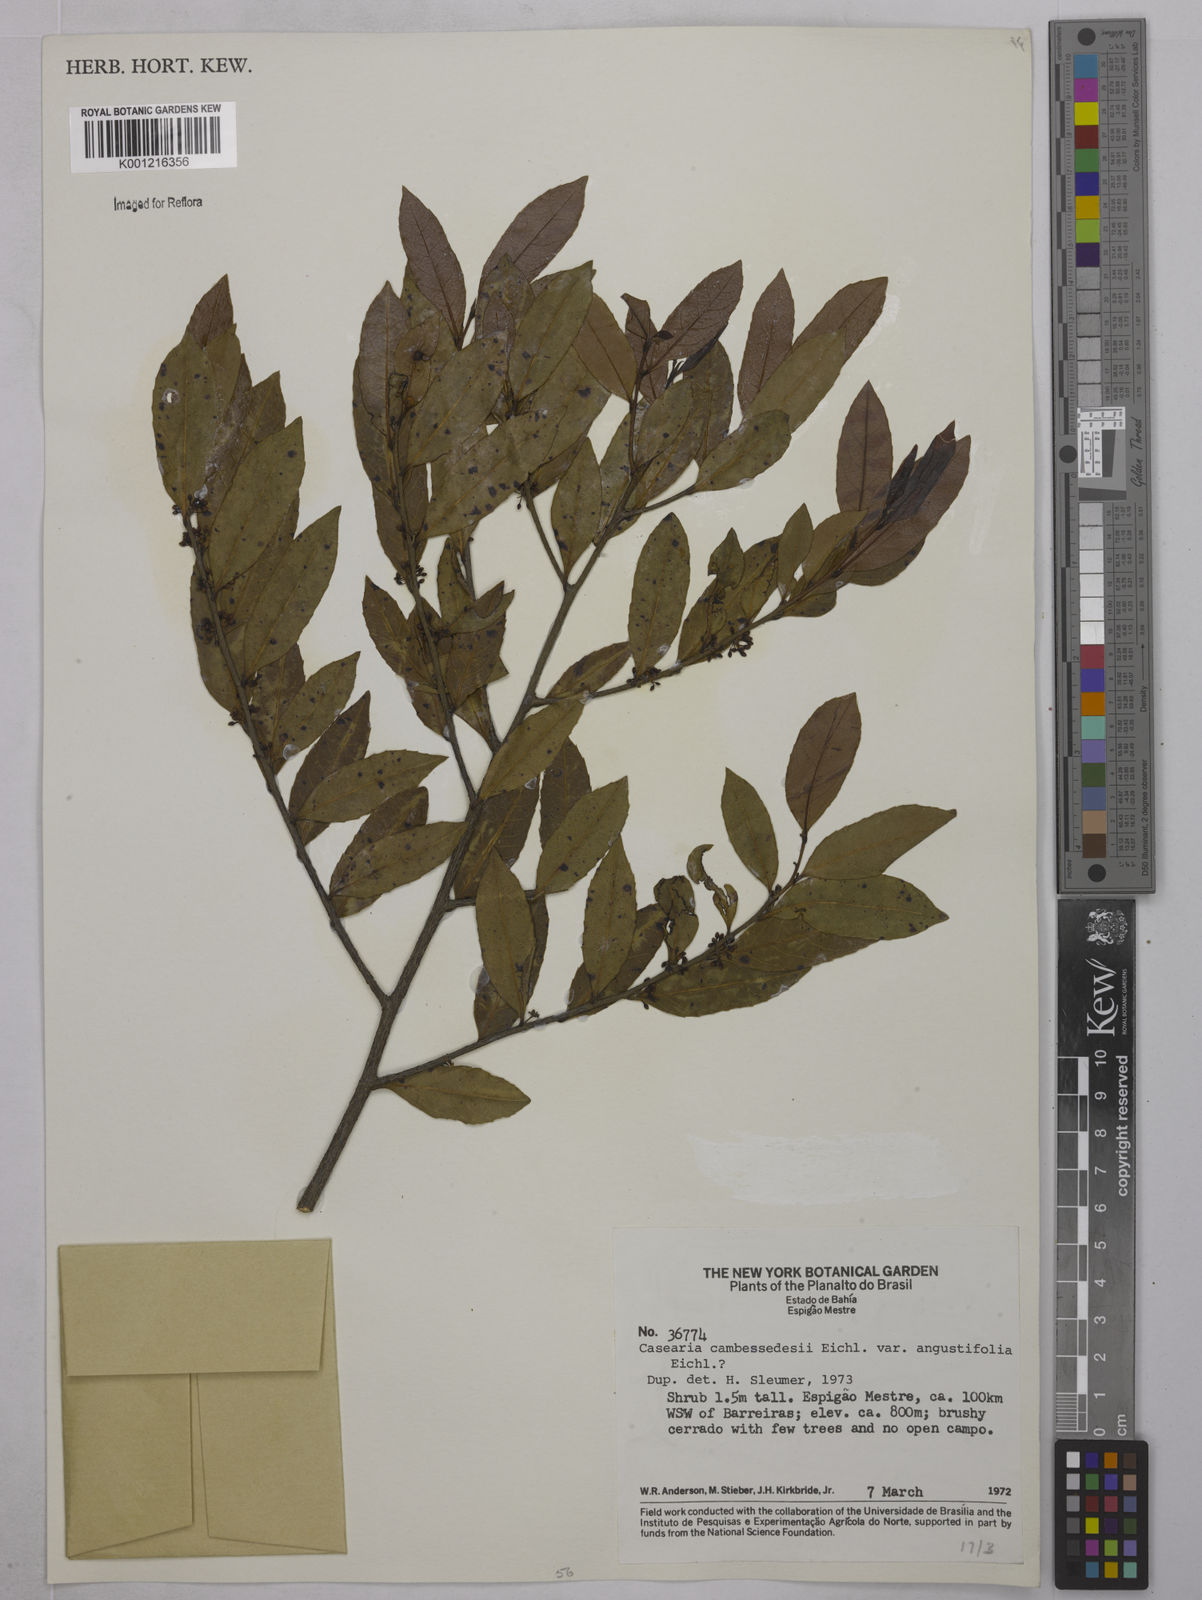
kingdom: Plantae
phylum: Tracheophyta
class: Magnoliopsida
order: Malpighiales
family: Salicaceae
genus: Casearia
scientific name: Casearia arborea
